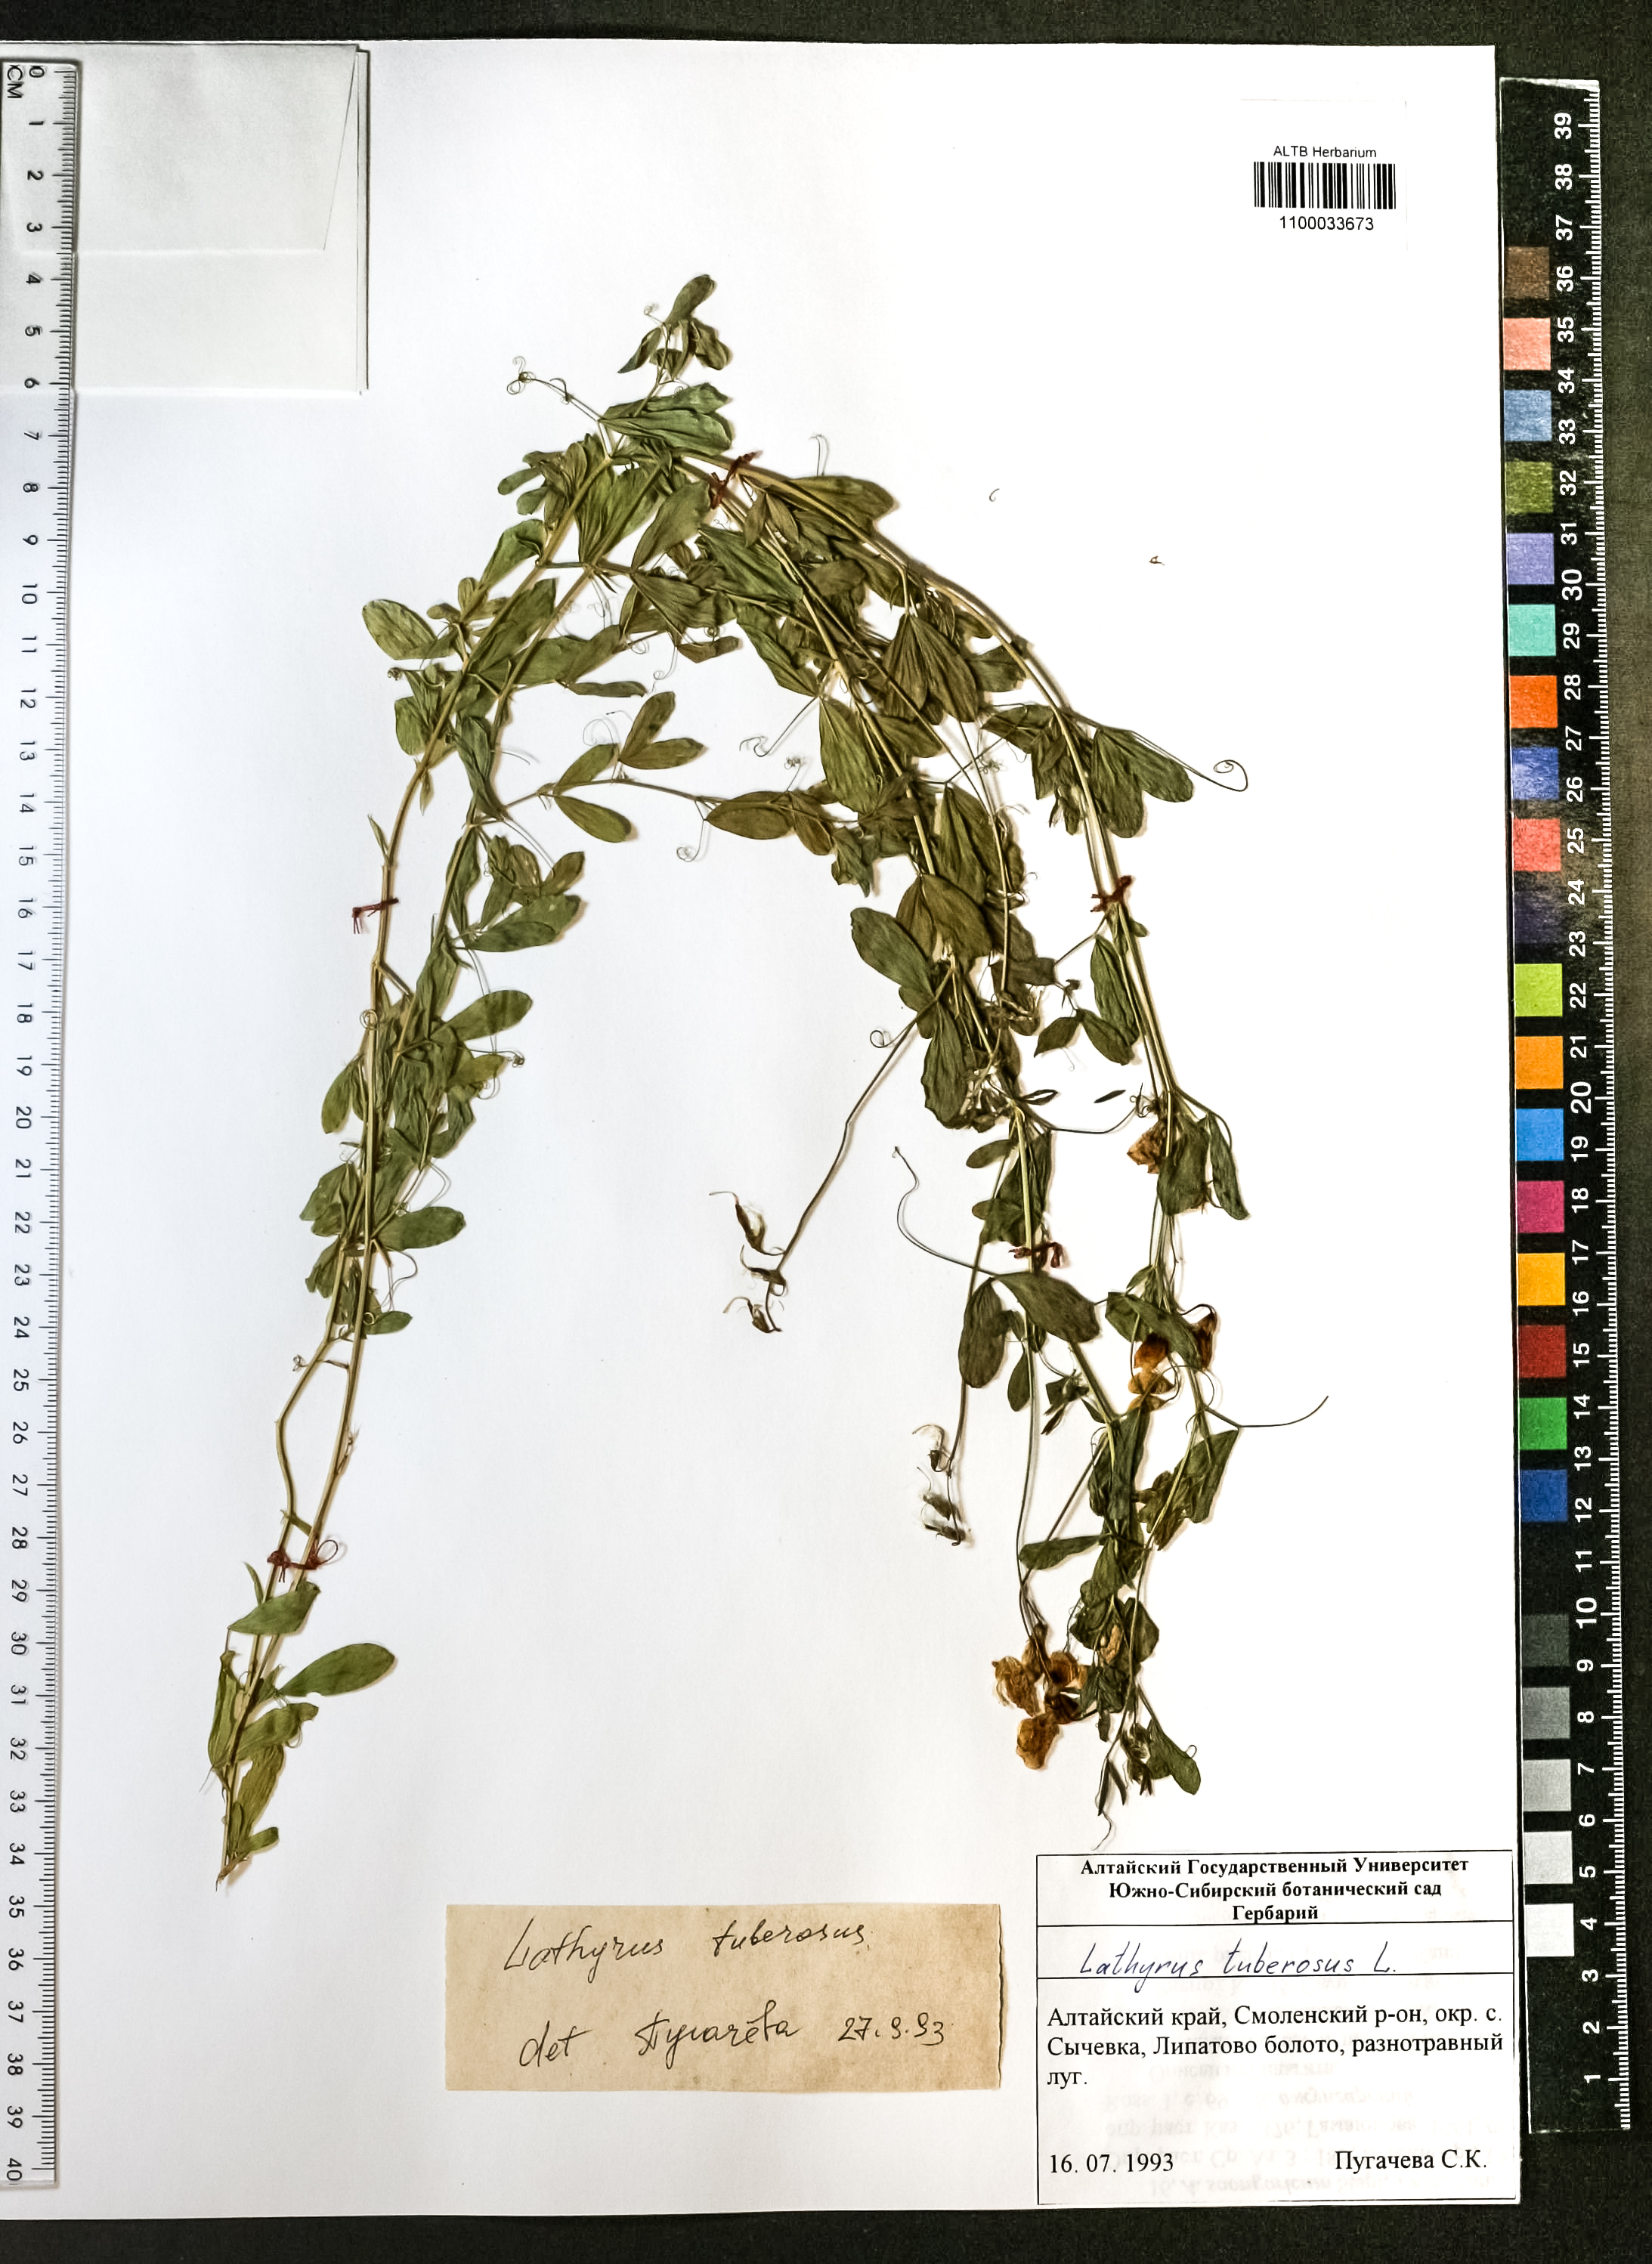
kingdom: Plantae
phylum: Tracheophyta
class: Magnoliopsida
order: Fabales
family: Fabaceae
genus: Lathyrus
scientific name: Lathyrus tuberosus
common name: Tuberous pea
